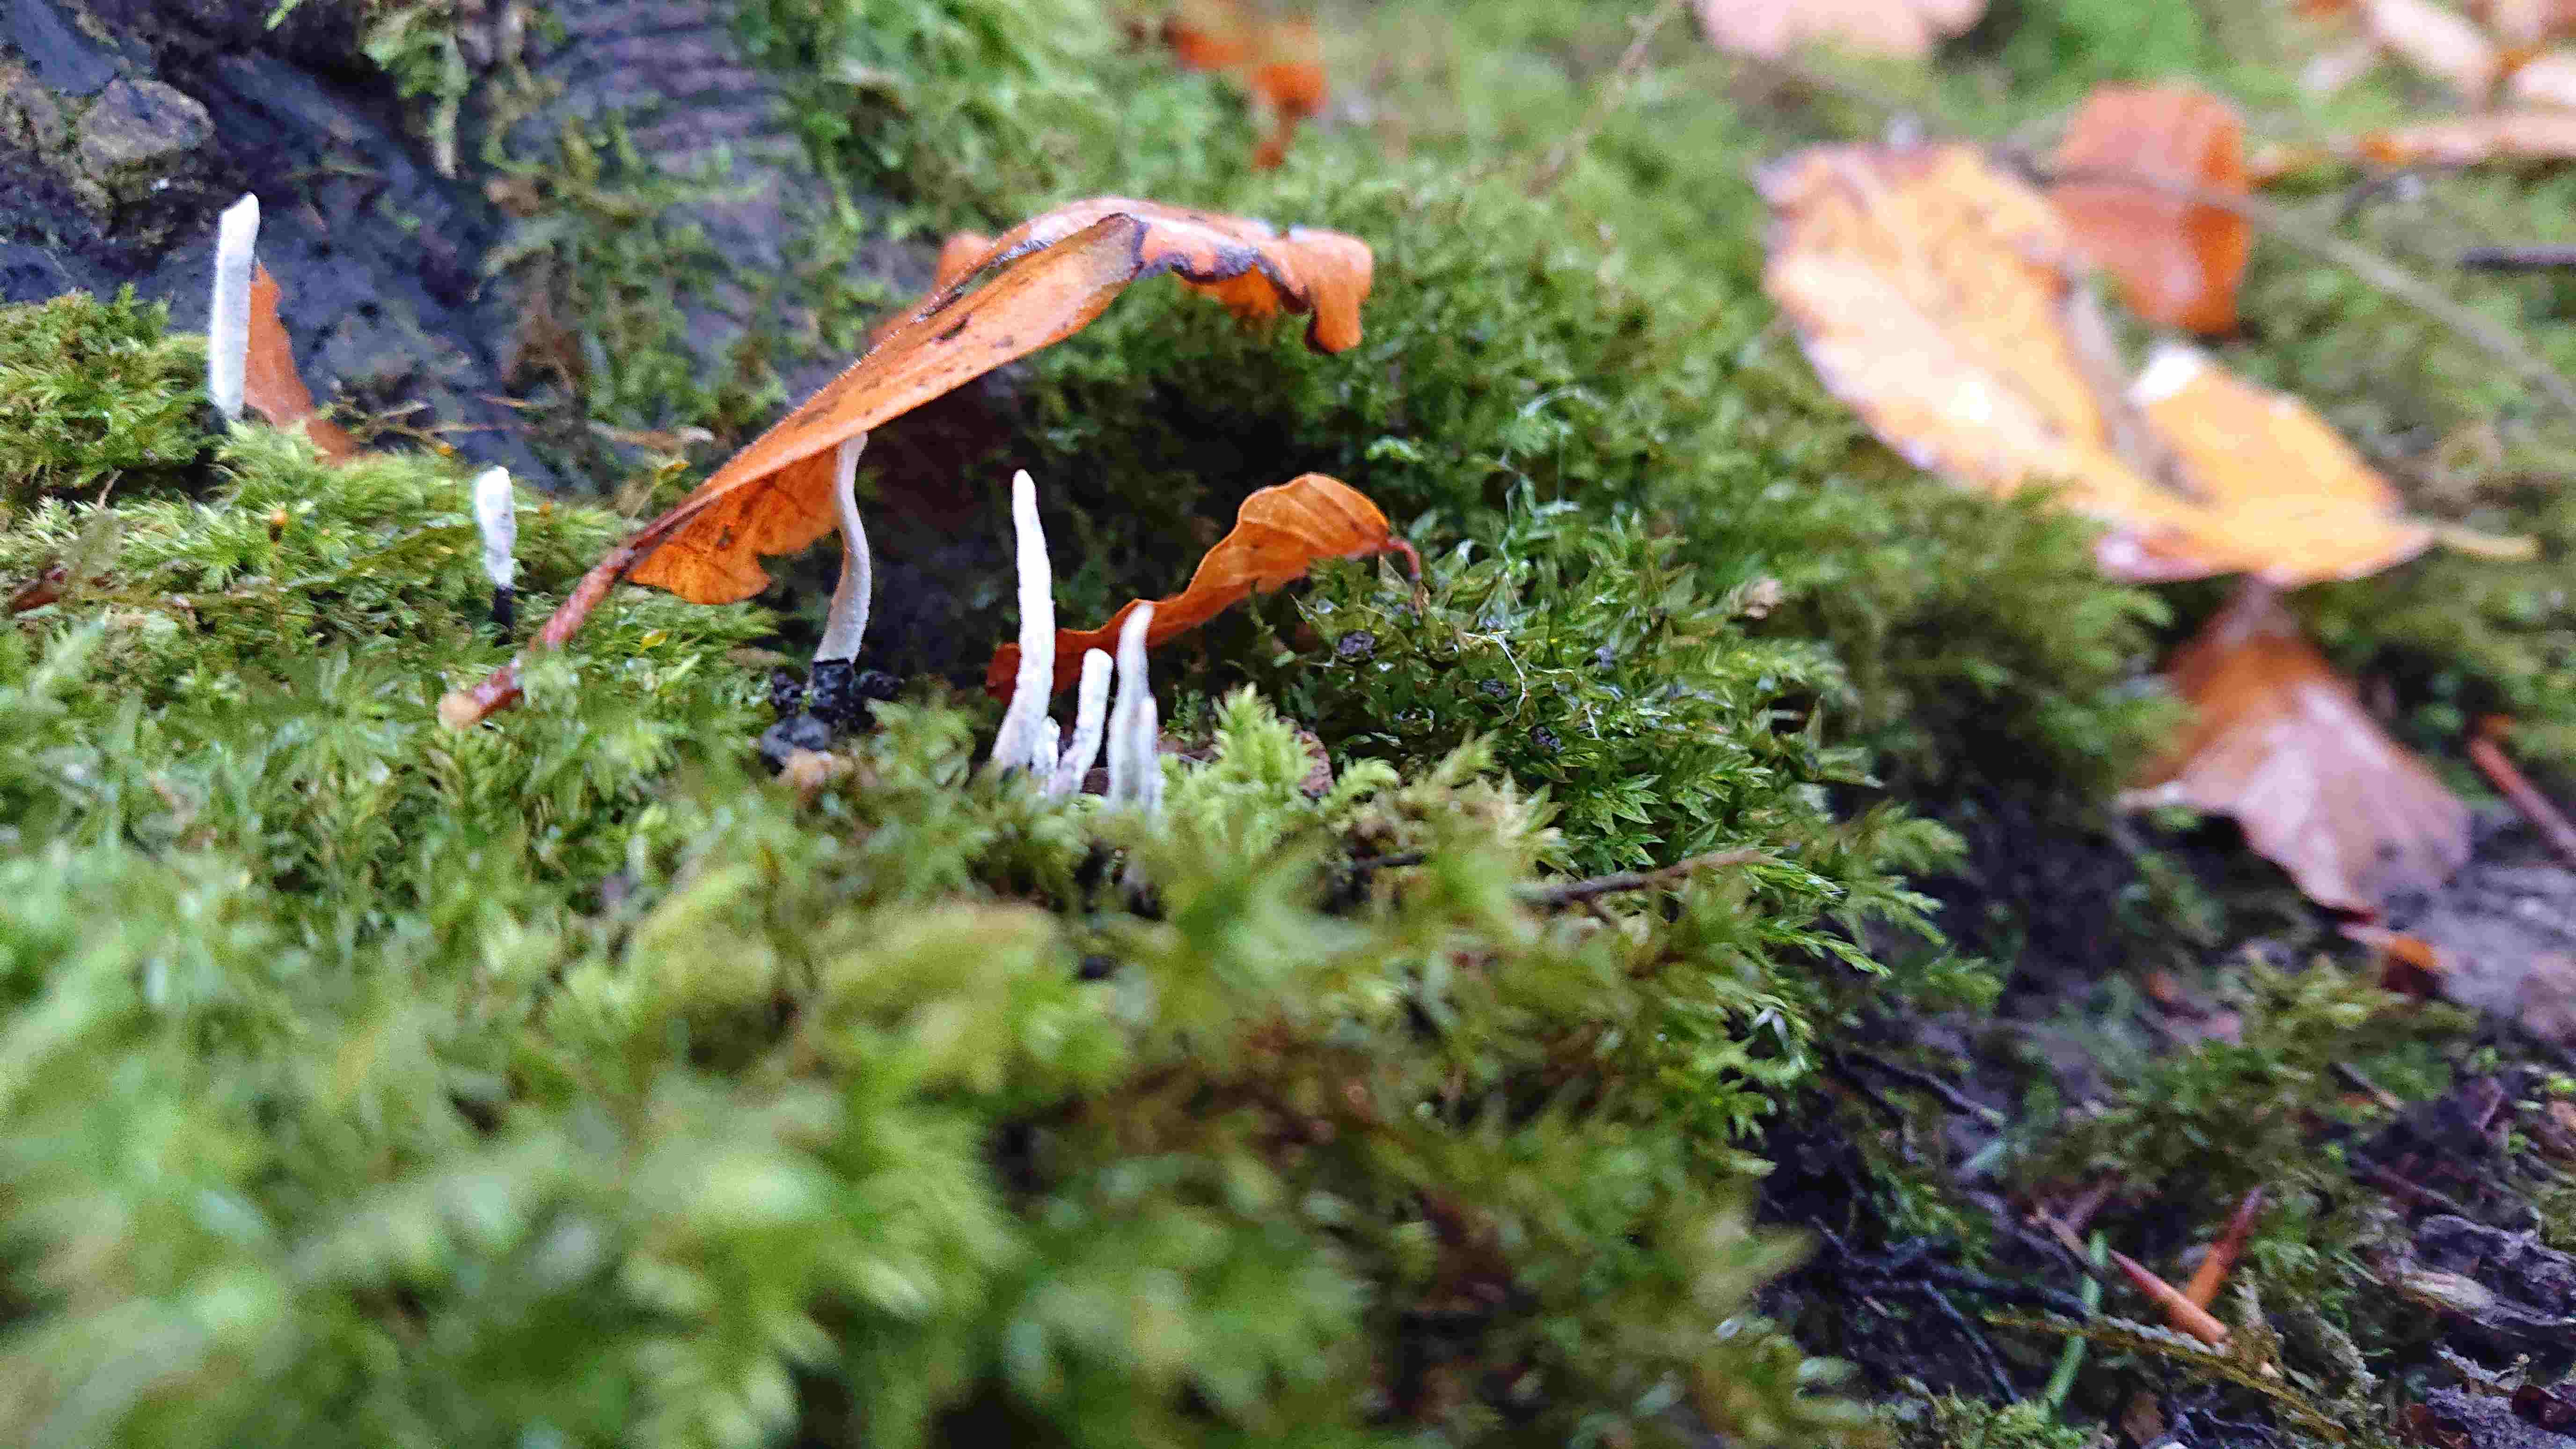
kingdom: Fungi
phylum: Ascomycota
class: Sordariomycetes
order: Xylariales
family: Xylariaceae
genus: Xylaria
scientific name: Xylaria hypoxylon
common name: grenet stødsvamp
